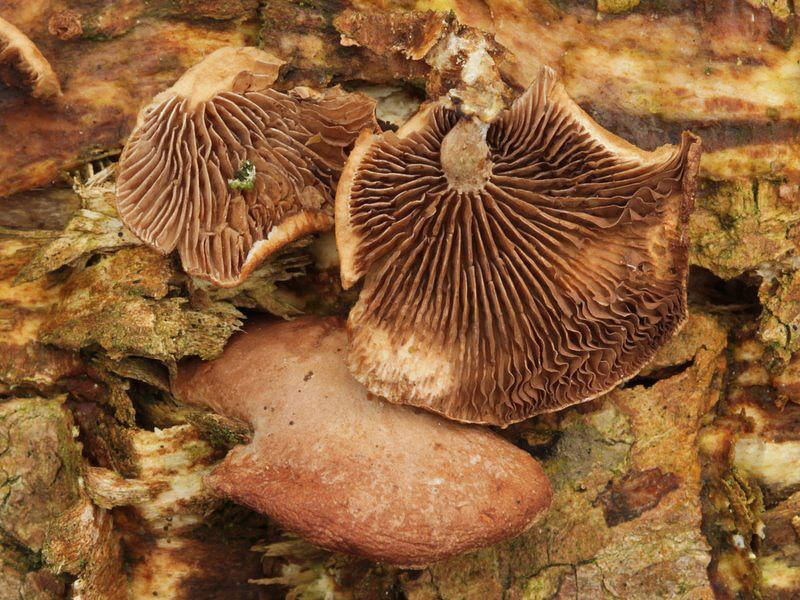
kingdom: Fungi
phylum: Basidiomycota
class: Agaricomycetes
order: Agaricales
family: Strophariaceae
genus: Deconica
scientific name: Deconica horizontalis
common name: ved-stråhat
